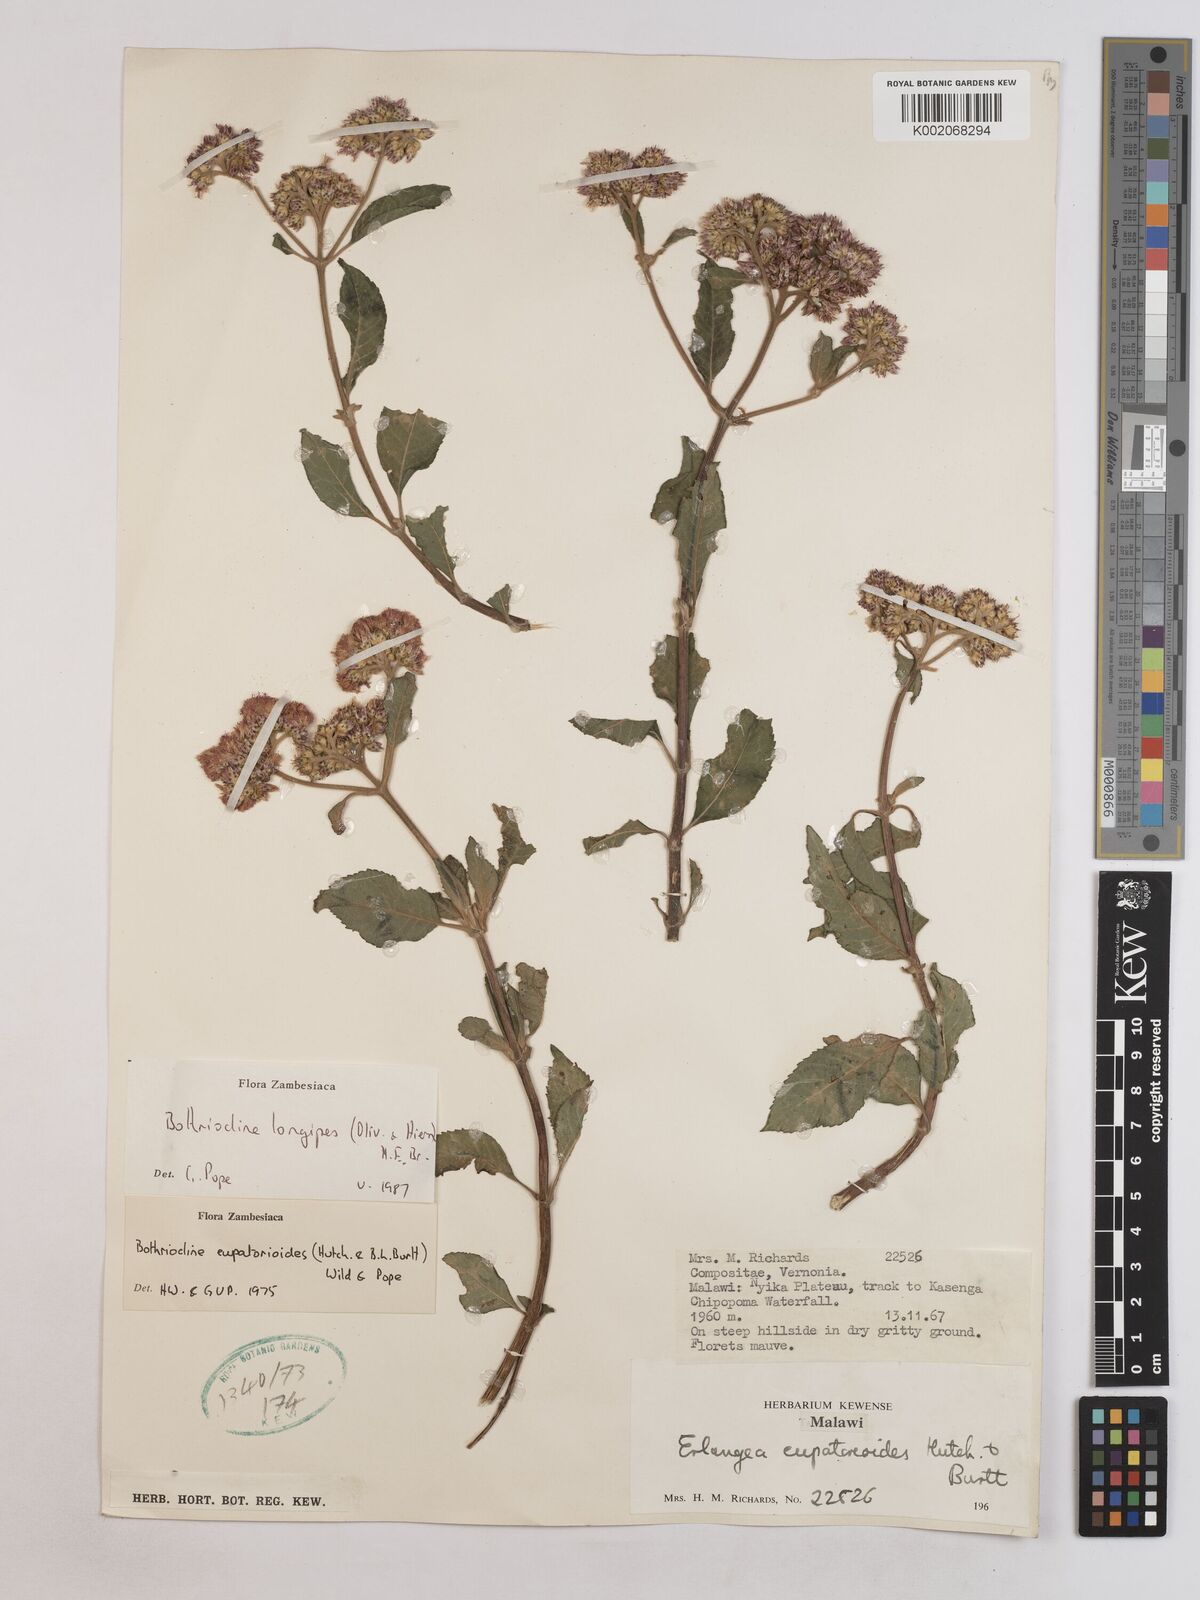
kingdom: Plantae
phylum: Tracheophyta
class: Magnoliopsida
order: Asterales
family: Asteraceae
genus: Bothriocline
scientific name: Bothriocline longipes
